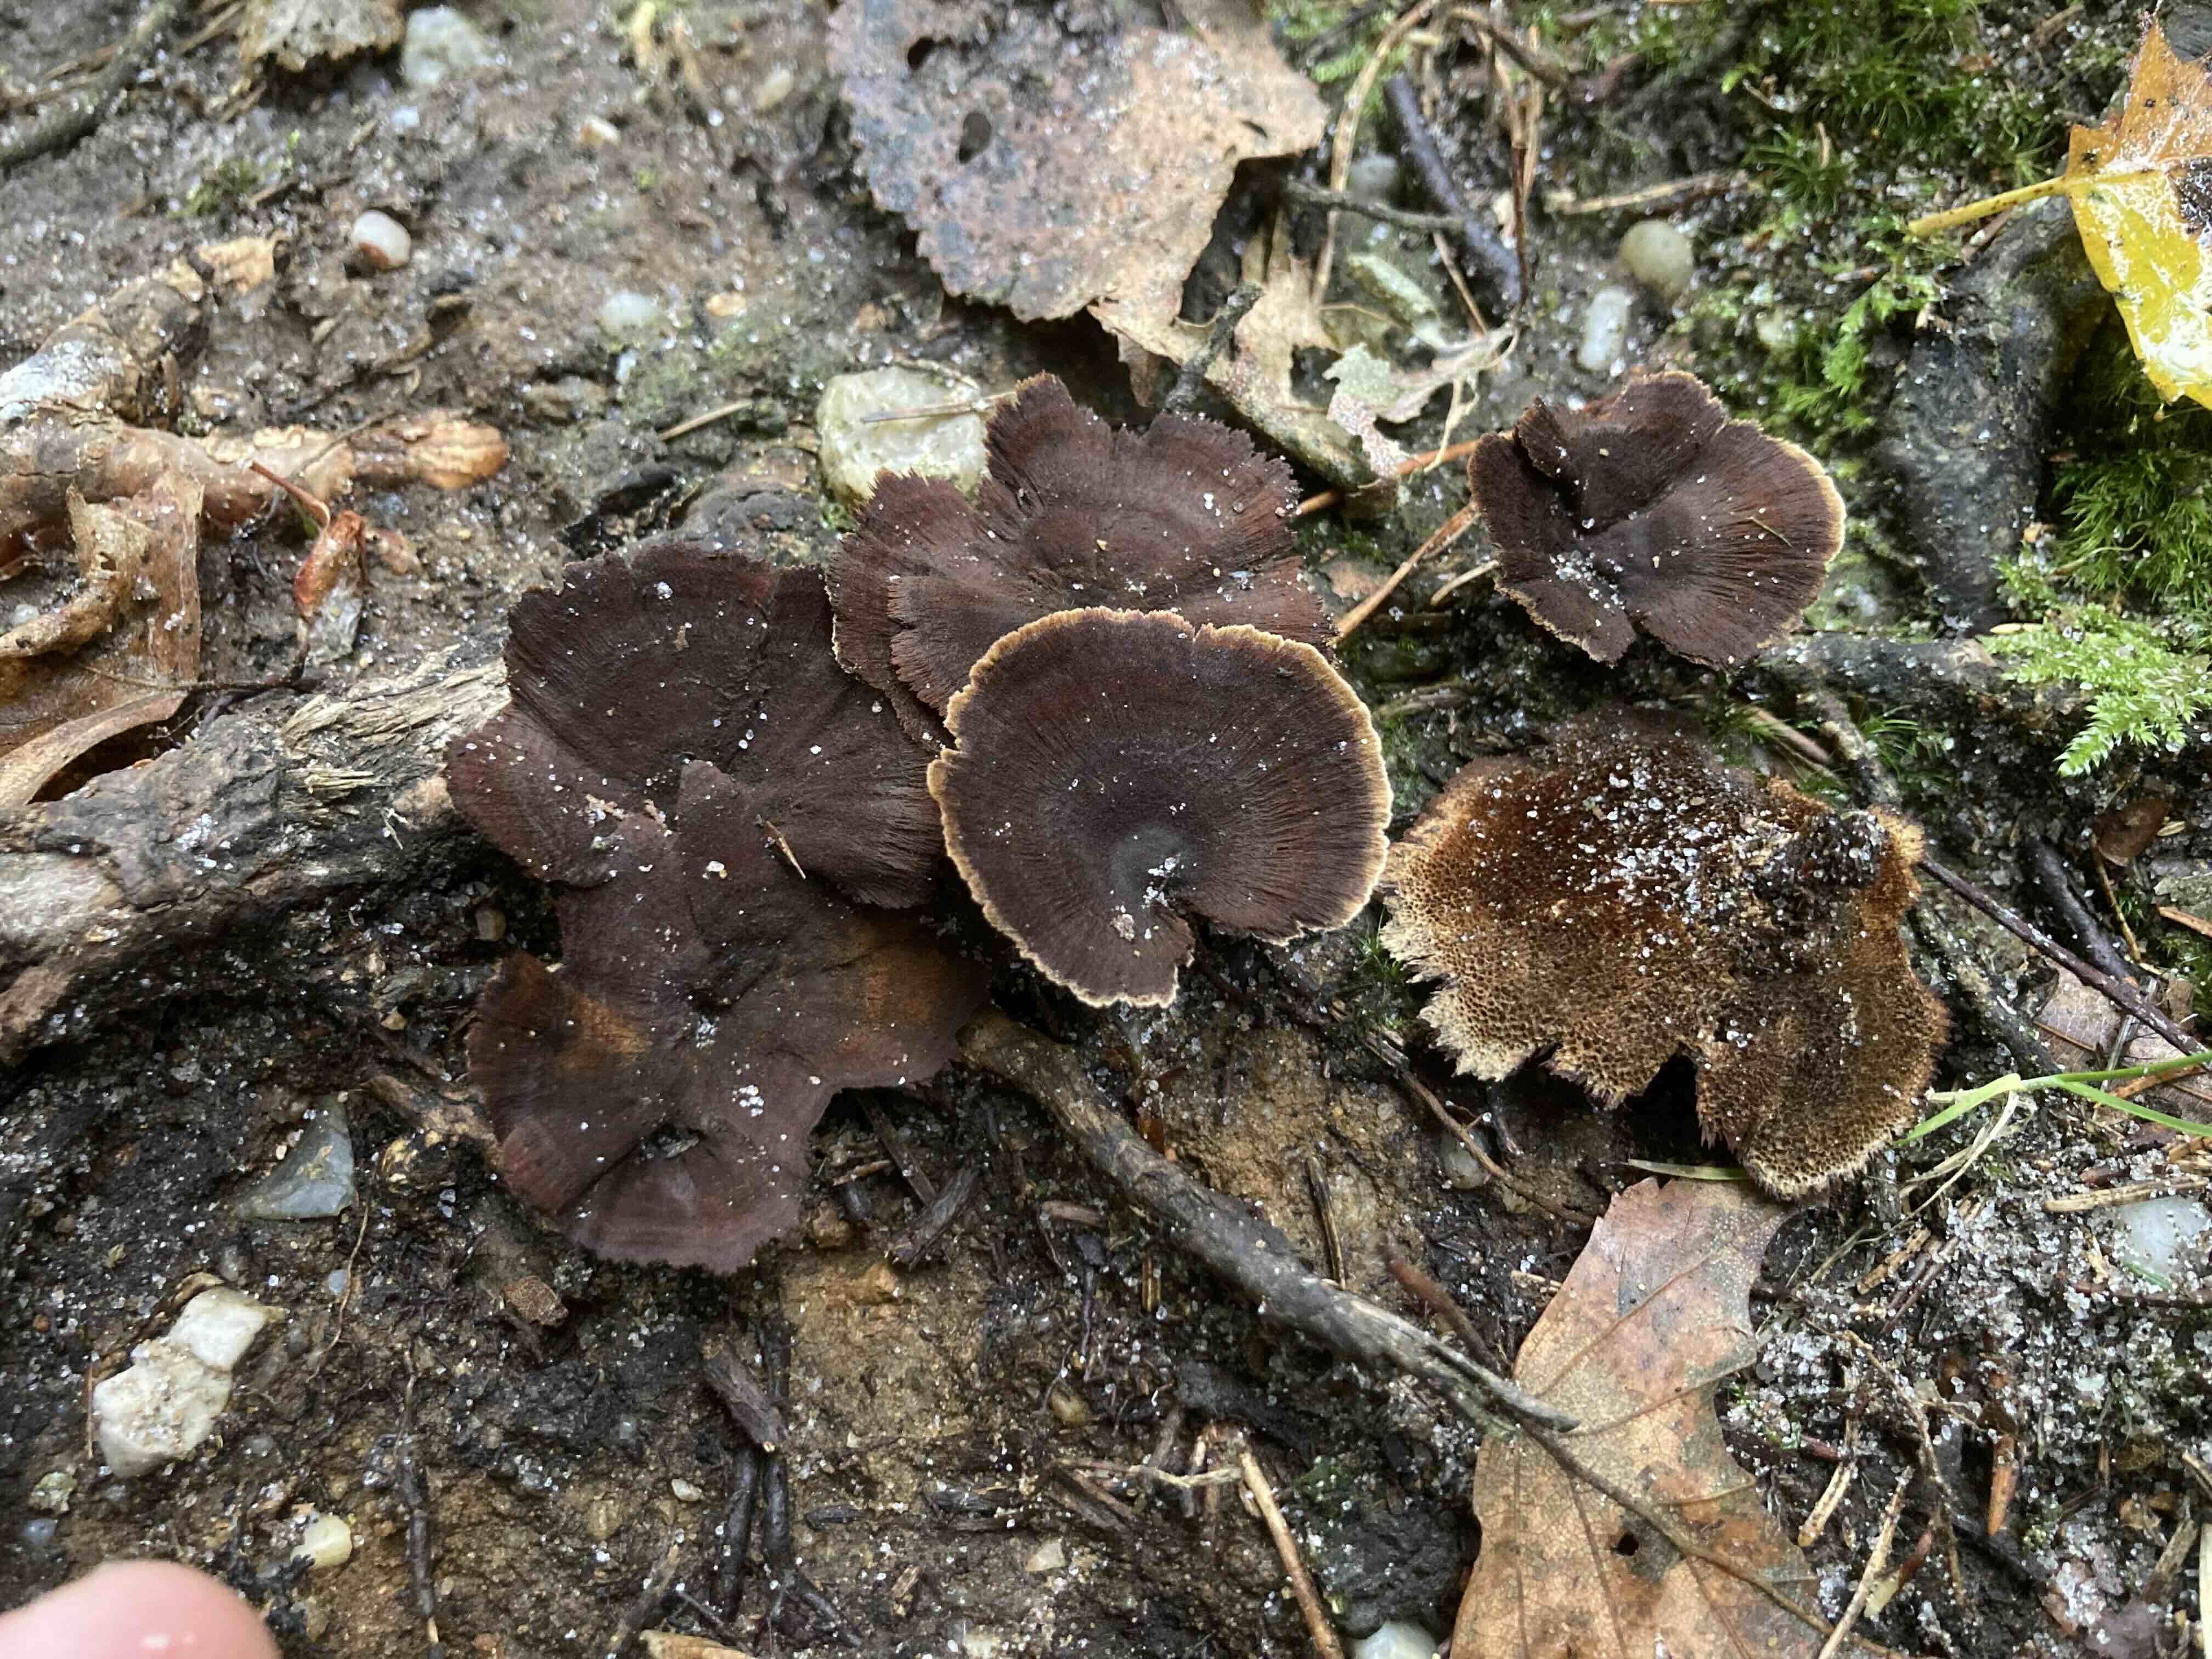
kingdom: Fungi
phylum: Basidiomycota
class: Agaricomycetes
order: Hymenochaetales
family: Hymenochaetaceae
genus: Coltricia
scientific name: Coltricia perennis
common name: almindelig sandporesvamp
